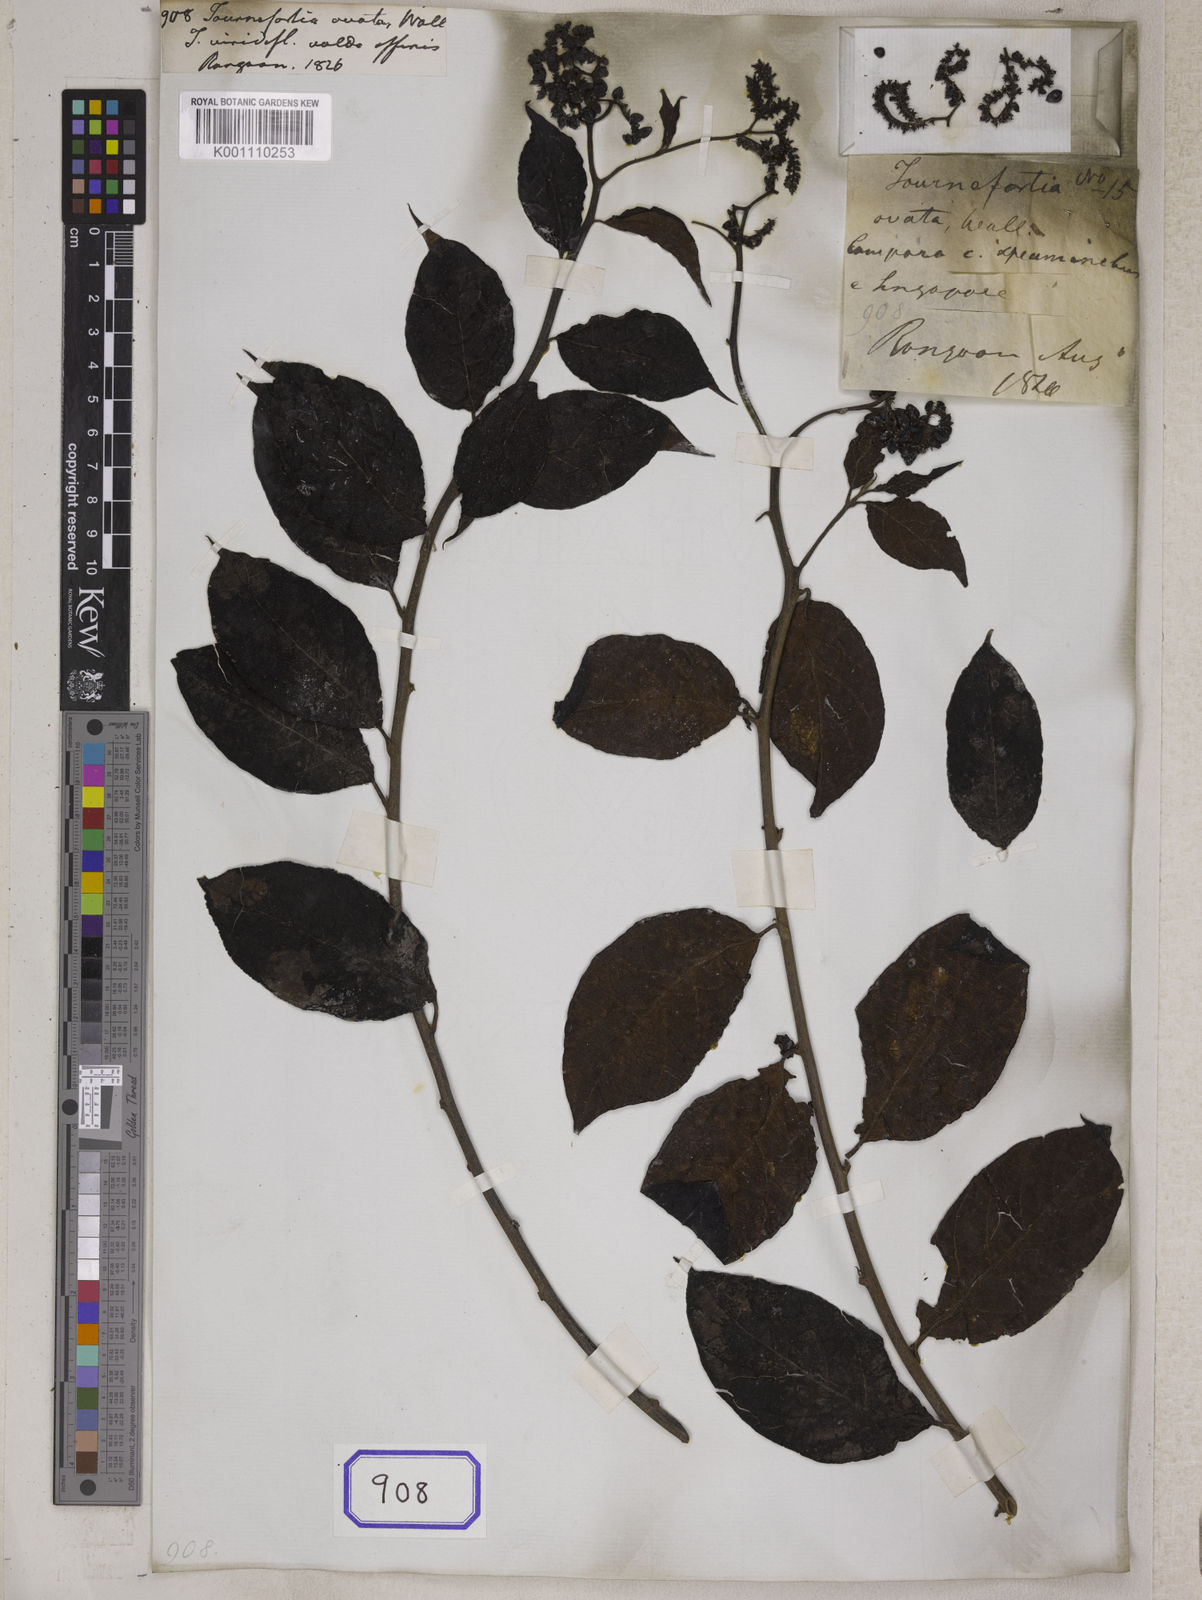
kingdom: Plantae
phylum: Tracheophyta
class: Magnoliopsida
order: Boraginales
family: Heliotropiaceae
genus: Tournefortia
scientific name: Tournefortia
